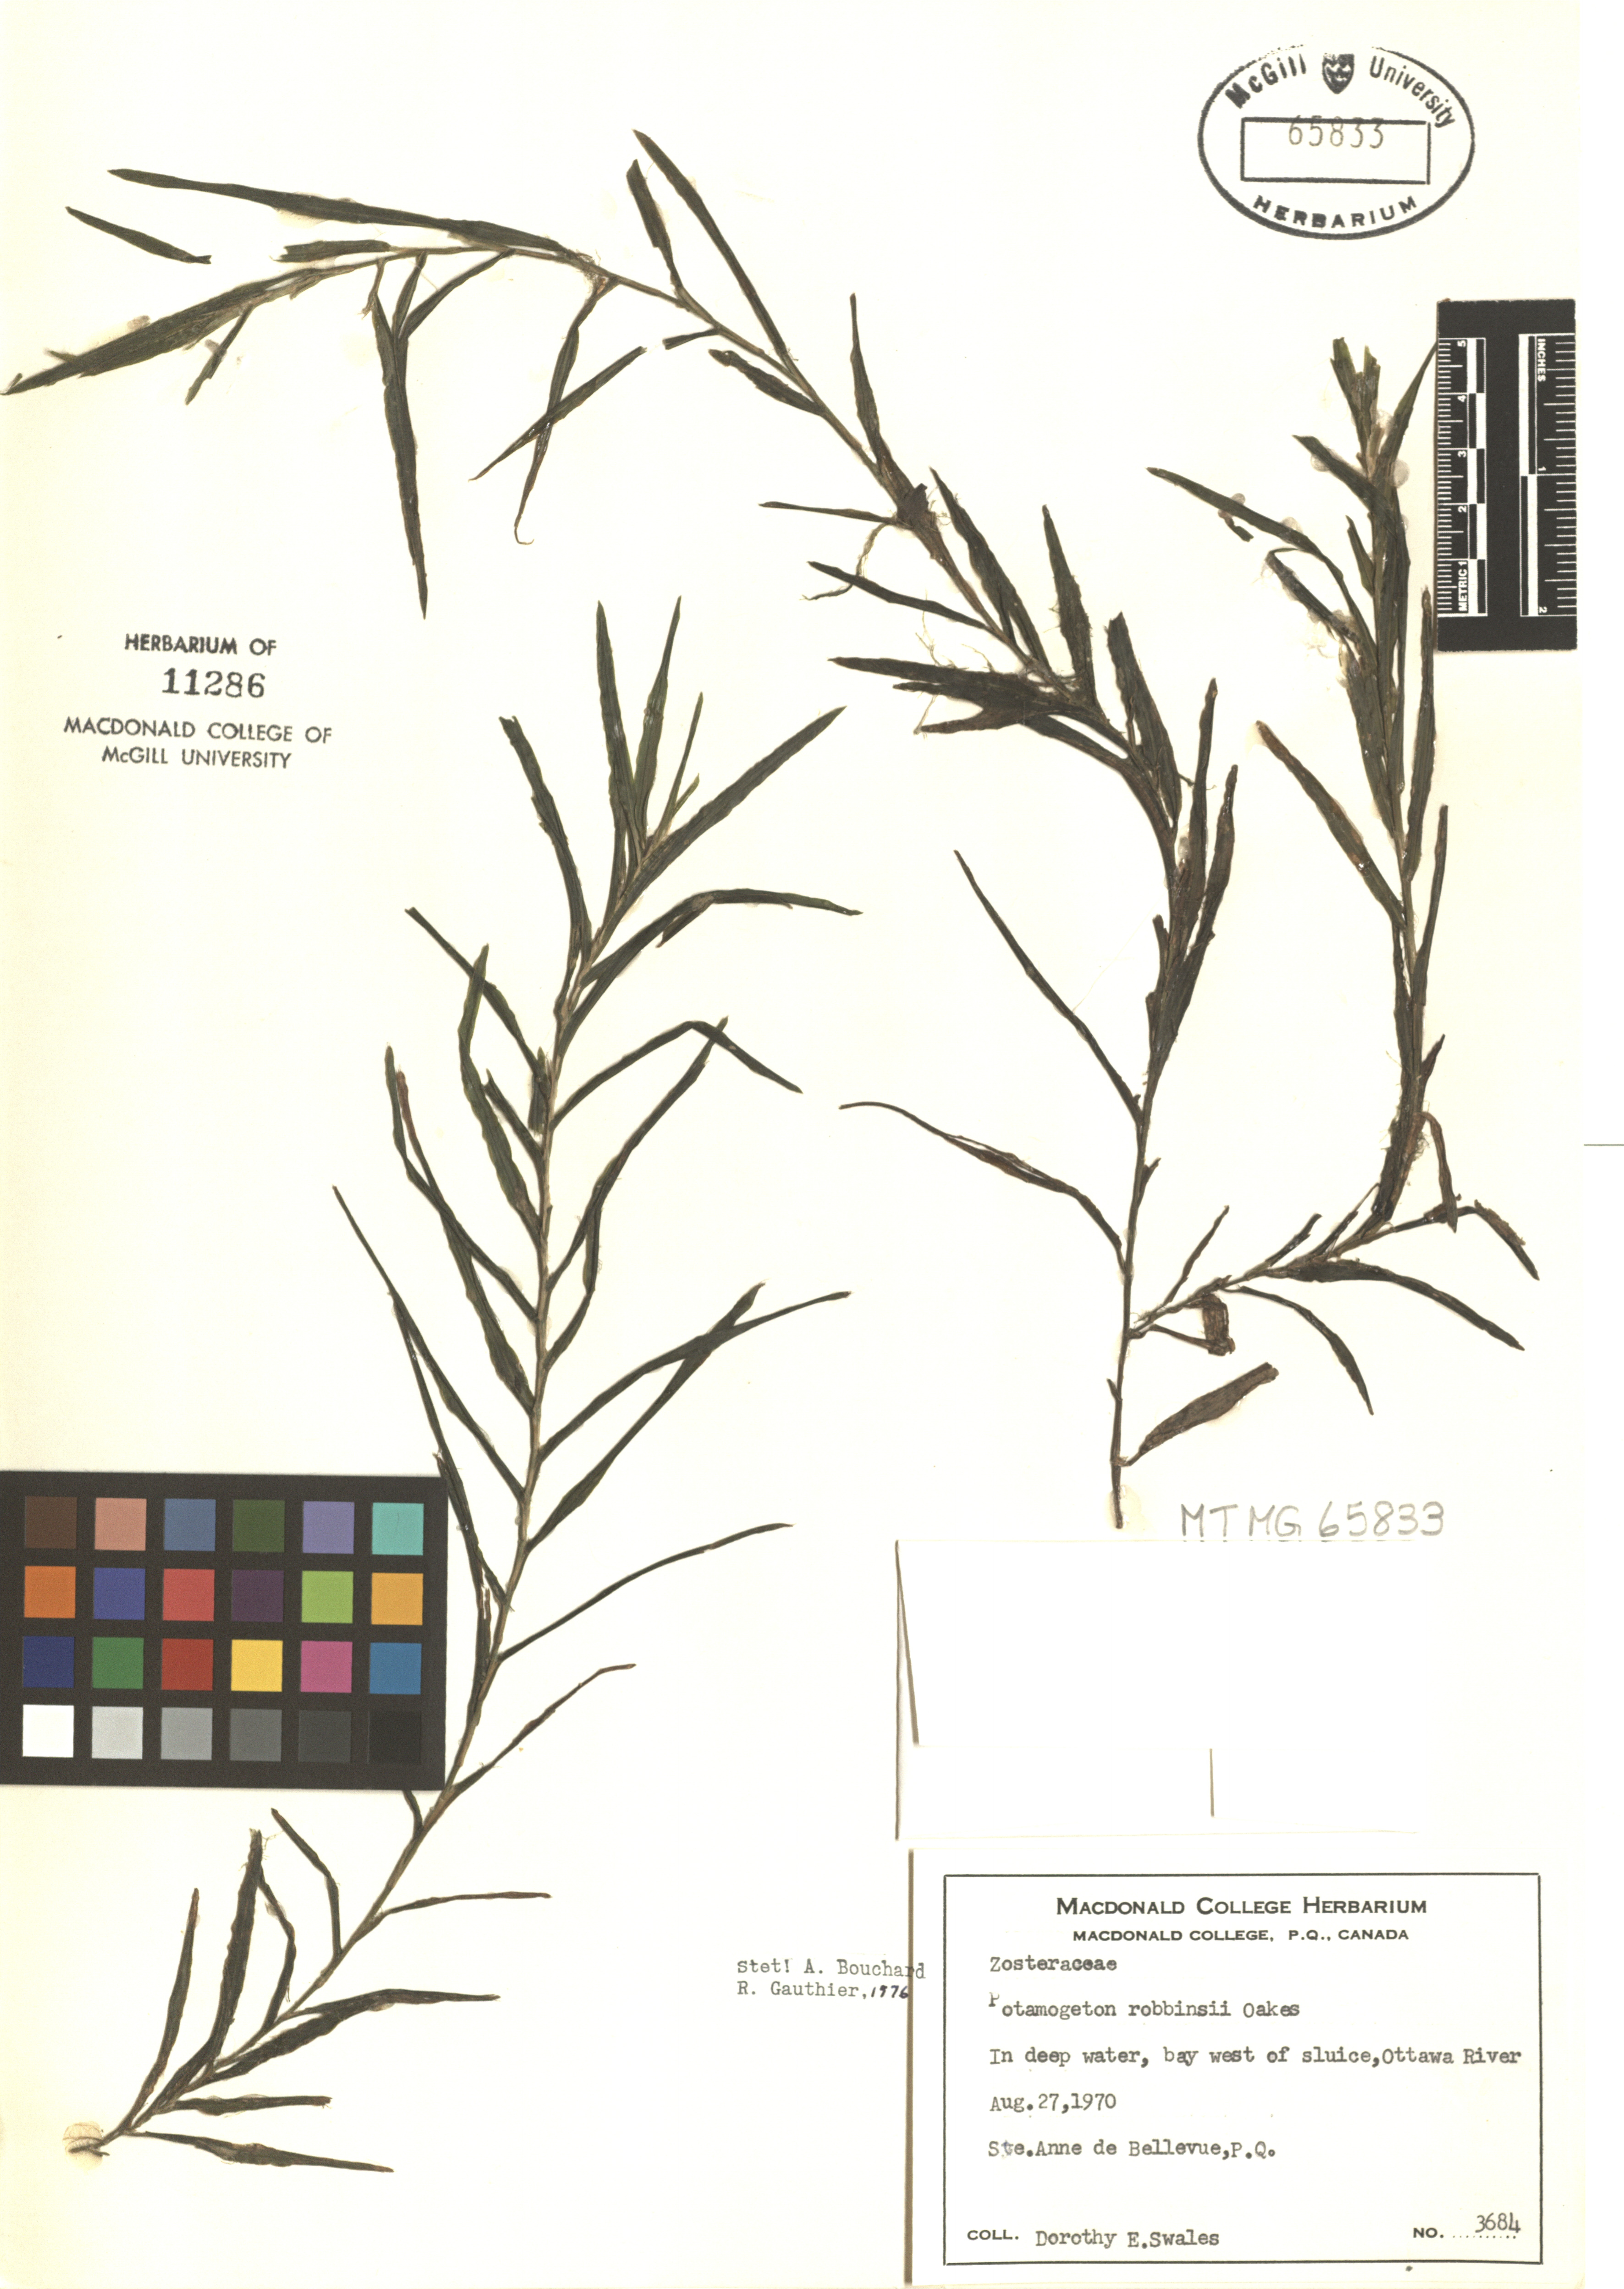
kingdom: Plantae
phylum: Tracheophyta
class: Liliopsida
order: Alismatales
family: Potamogetonaceae
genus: Potamogeton
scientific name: Potamogeton robbinsii
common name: Fern pondweed
